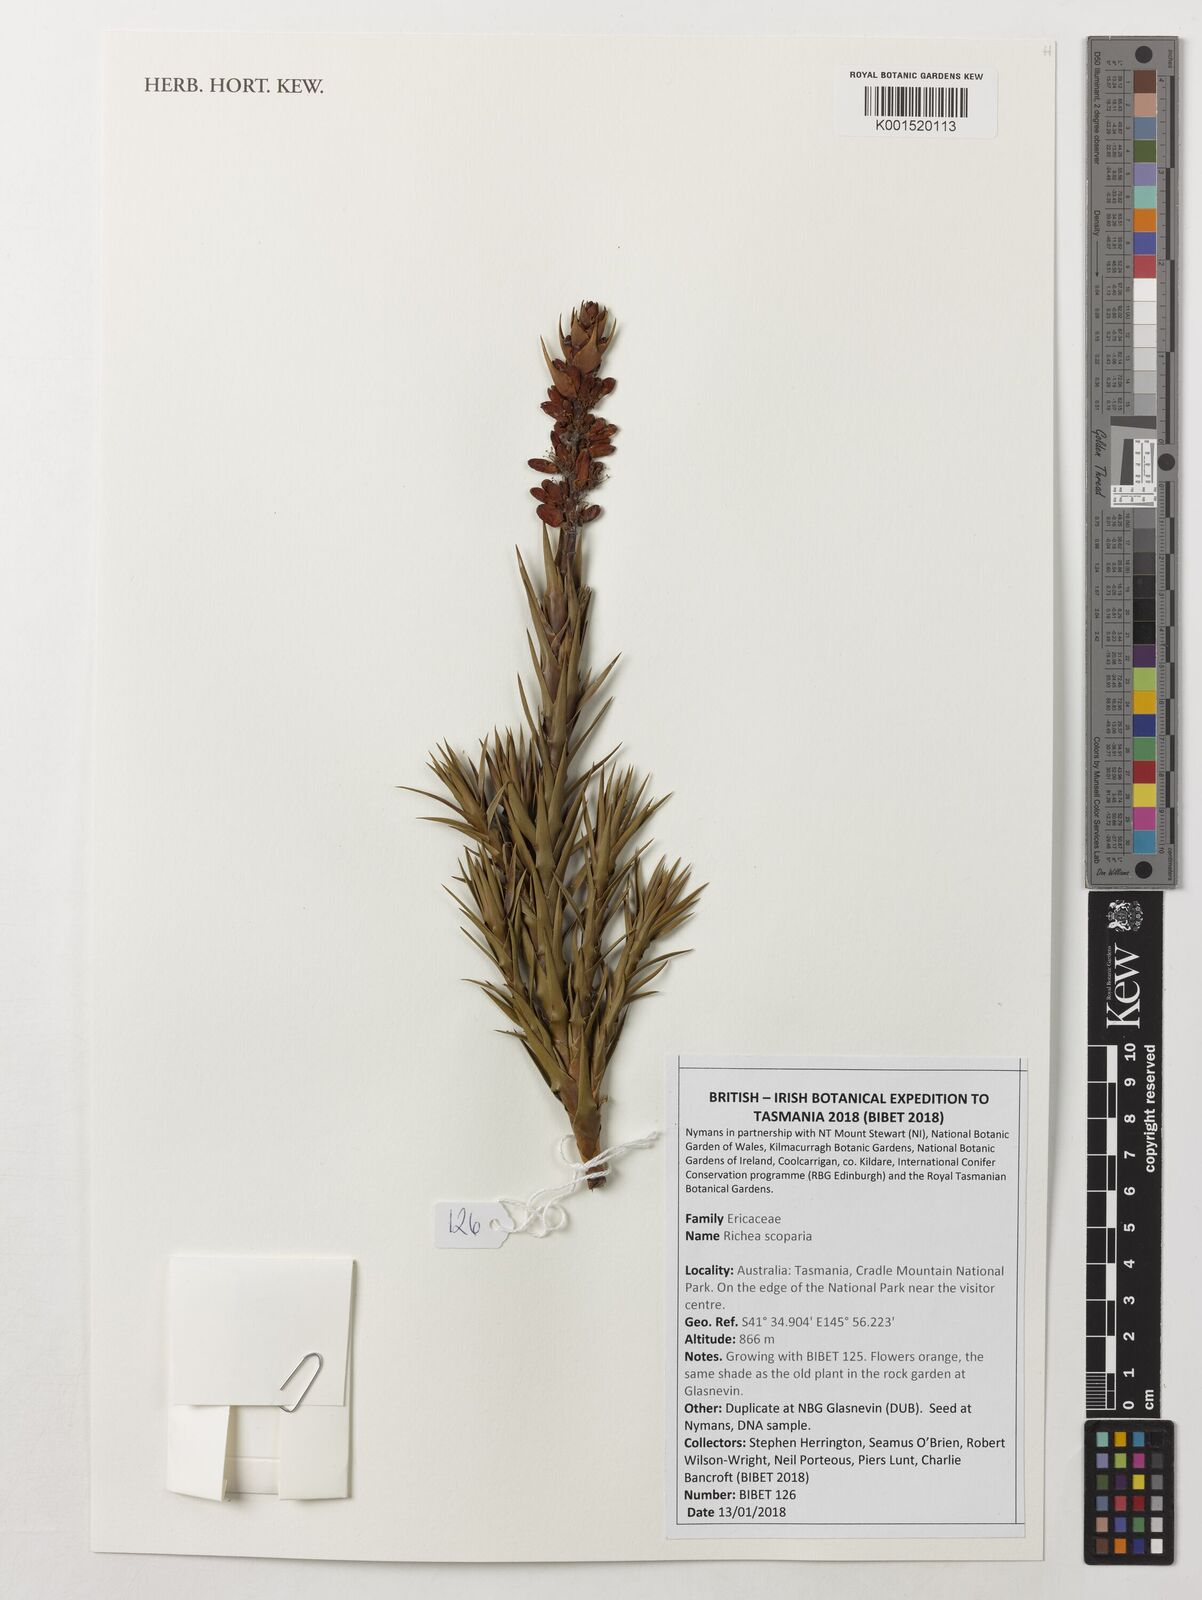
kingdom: Plantae
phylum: Tracheophyta
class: Magnoliopsida
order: Ericales
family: Ericaceae
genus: Dracophyllum
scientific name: Dracophyllum persistentifolium
